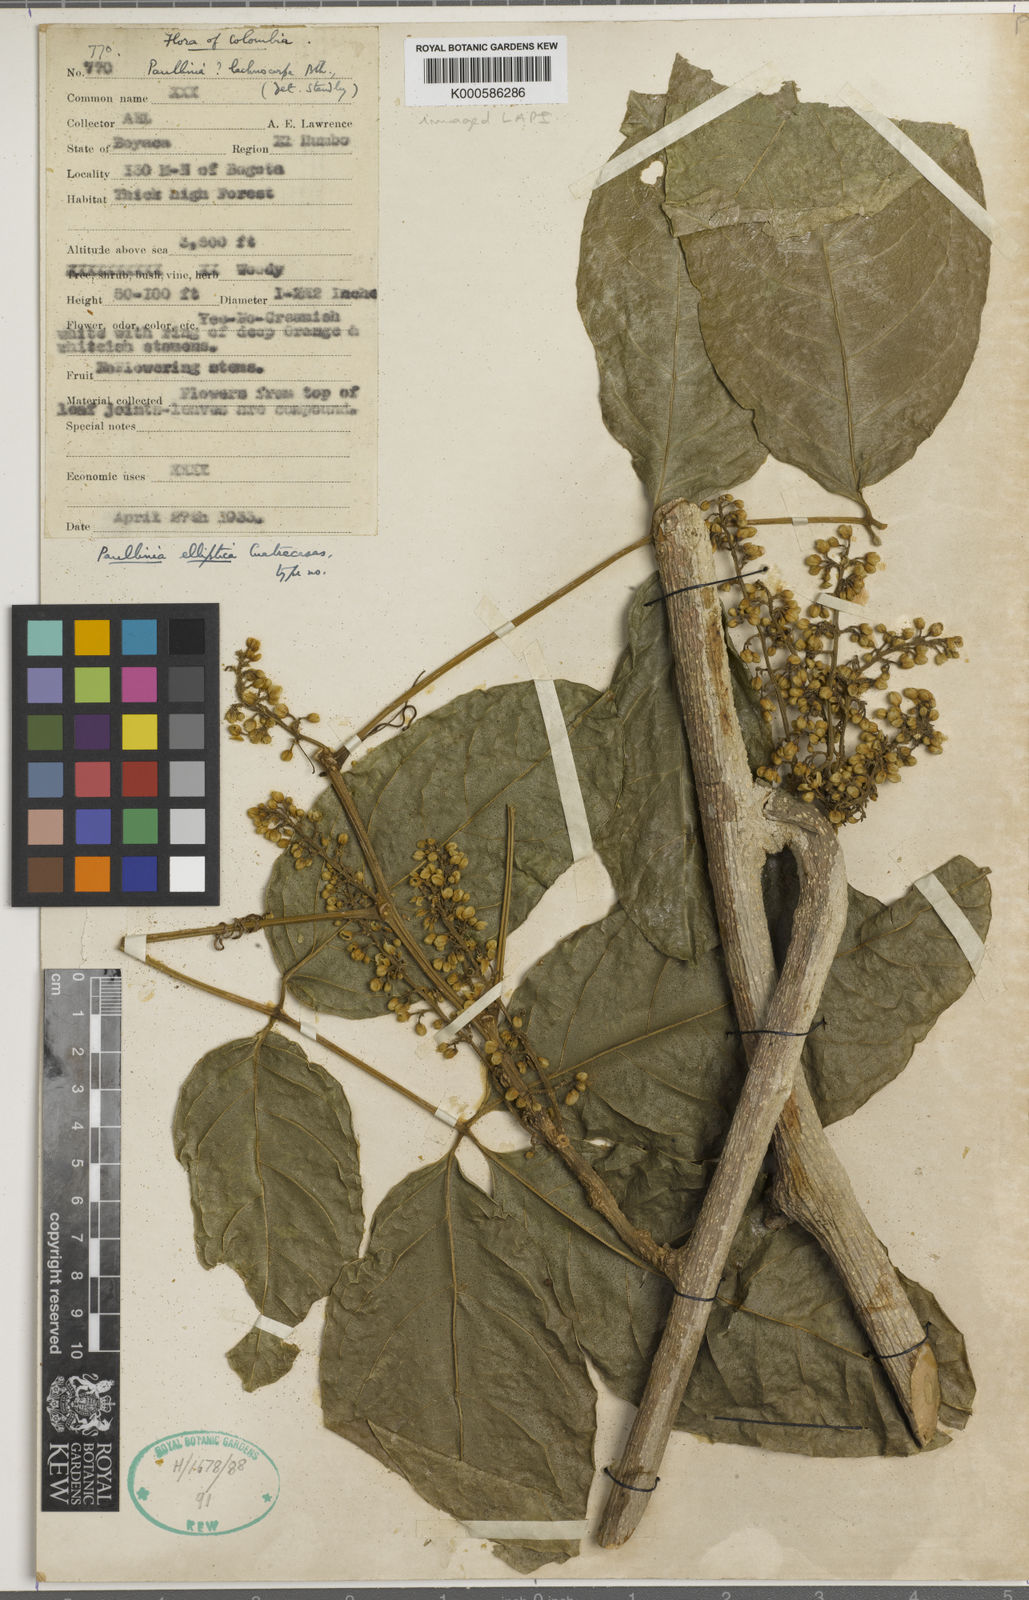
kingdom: Plantae
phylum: Tracheophyta
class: Magnoliopsida
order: Sapindales
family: Sapindaceae
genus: Paullinia
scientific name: Paullinia elliptica
